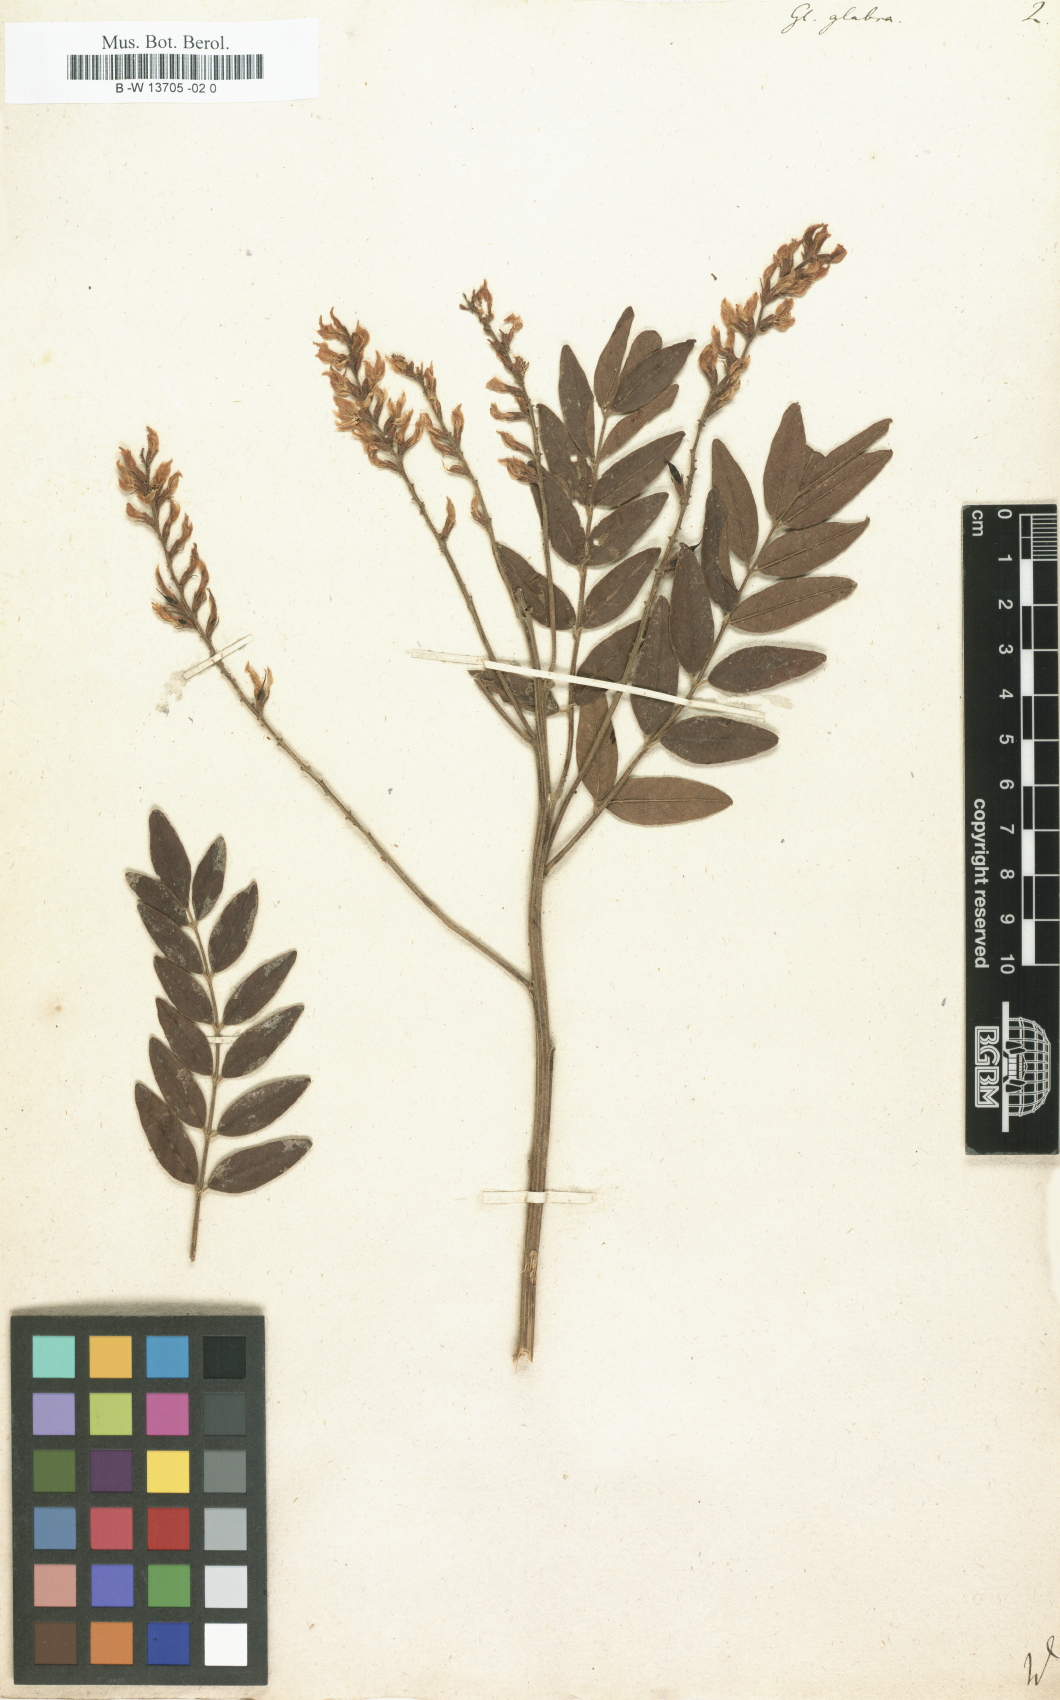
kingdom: Plantae
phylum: Tracheophyta
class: Magnoliopsida
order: Fabales
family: Fabaceae
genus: Glycyrrhiza
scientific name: Glycyrrhiza glabra
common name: Liquorice
